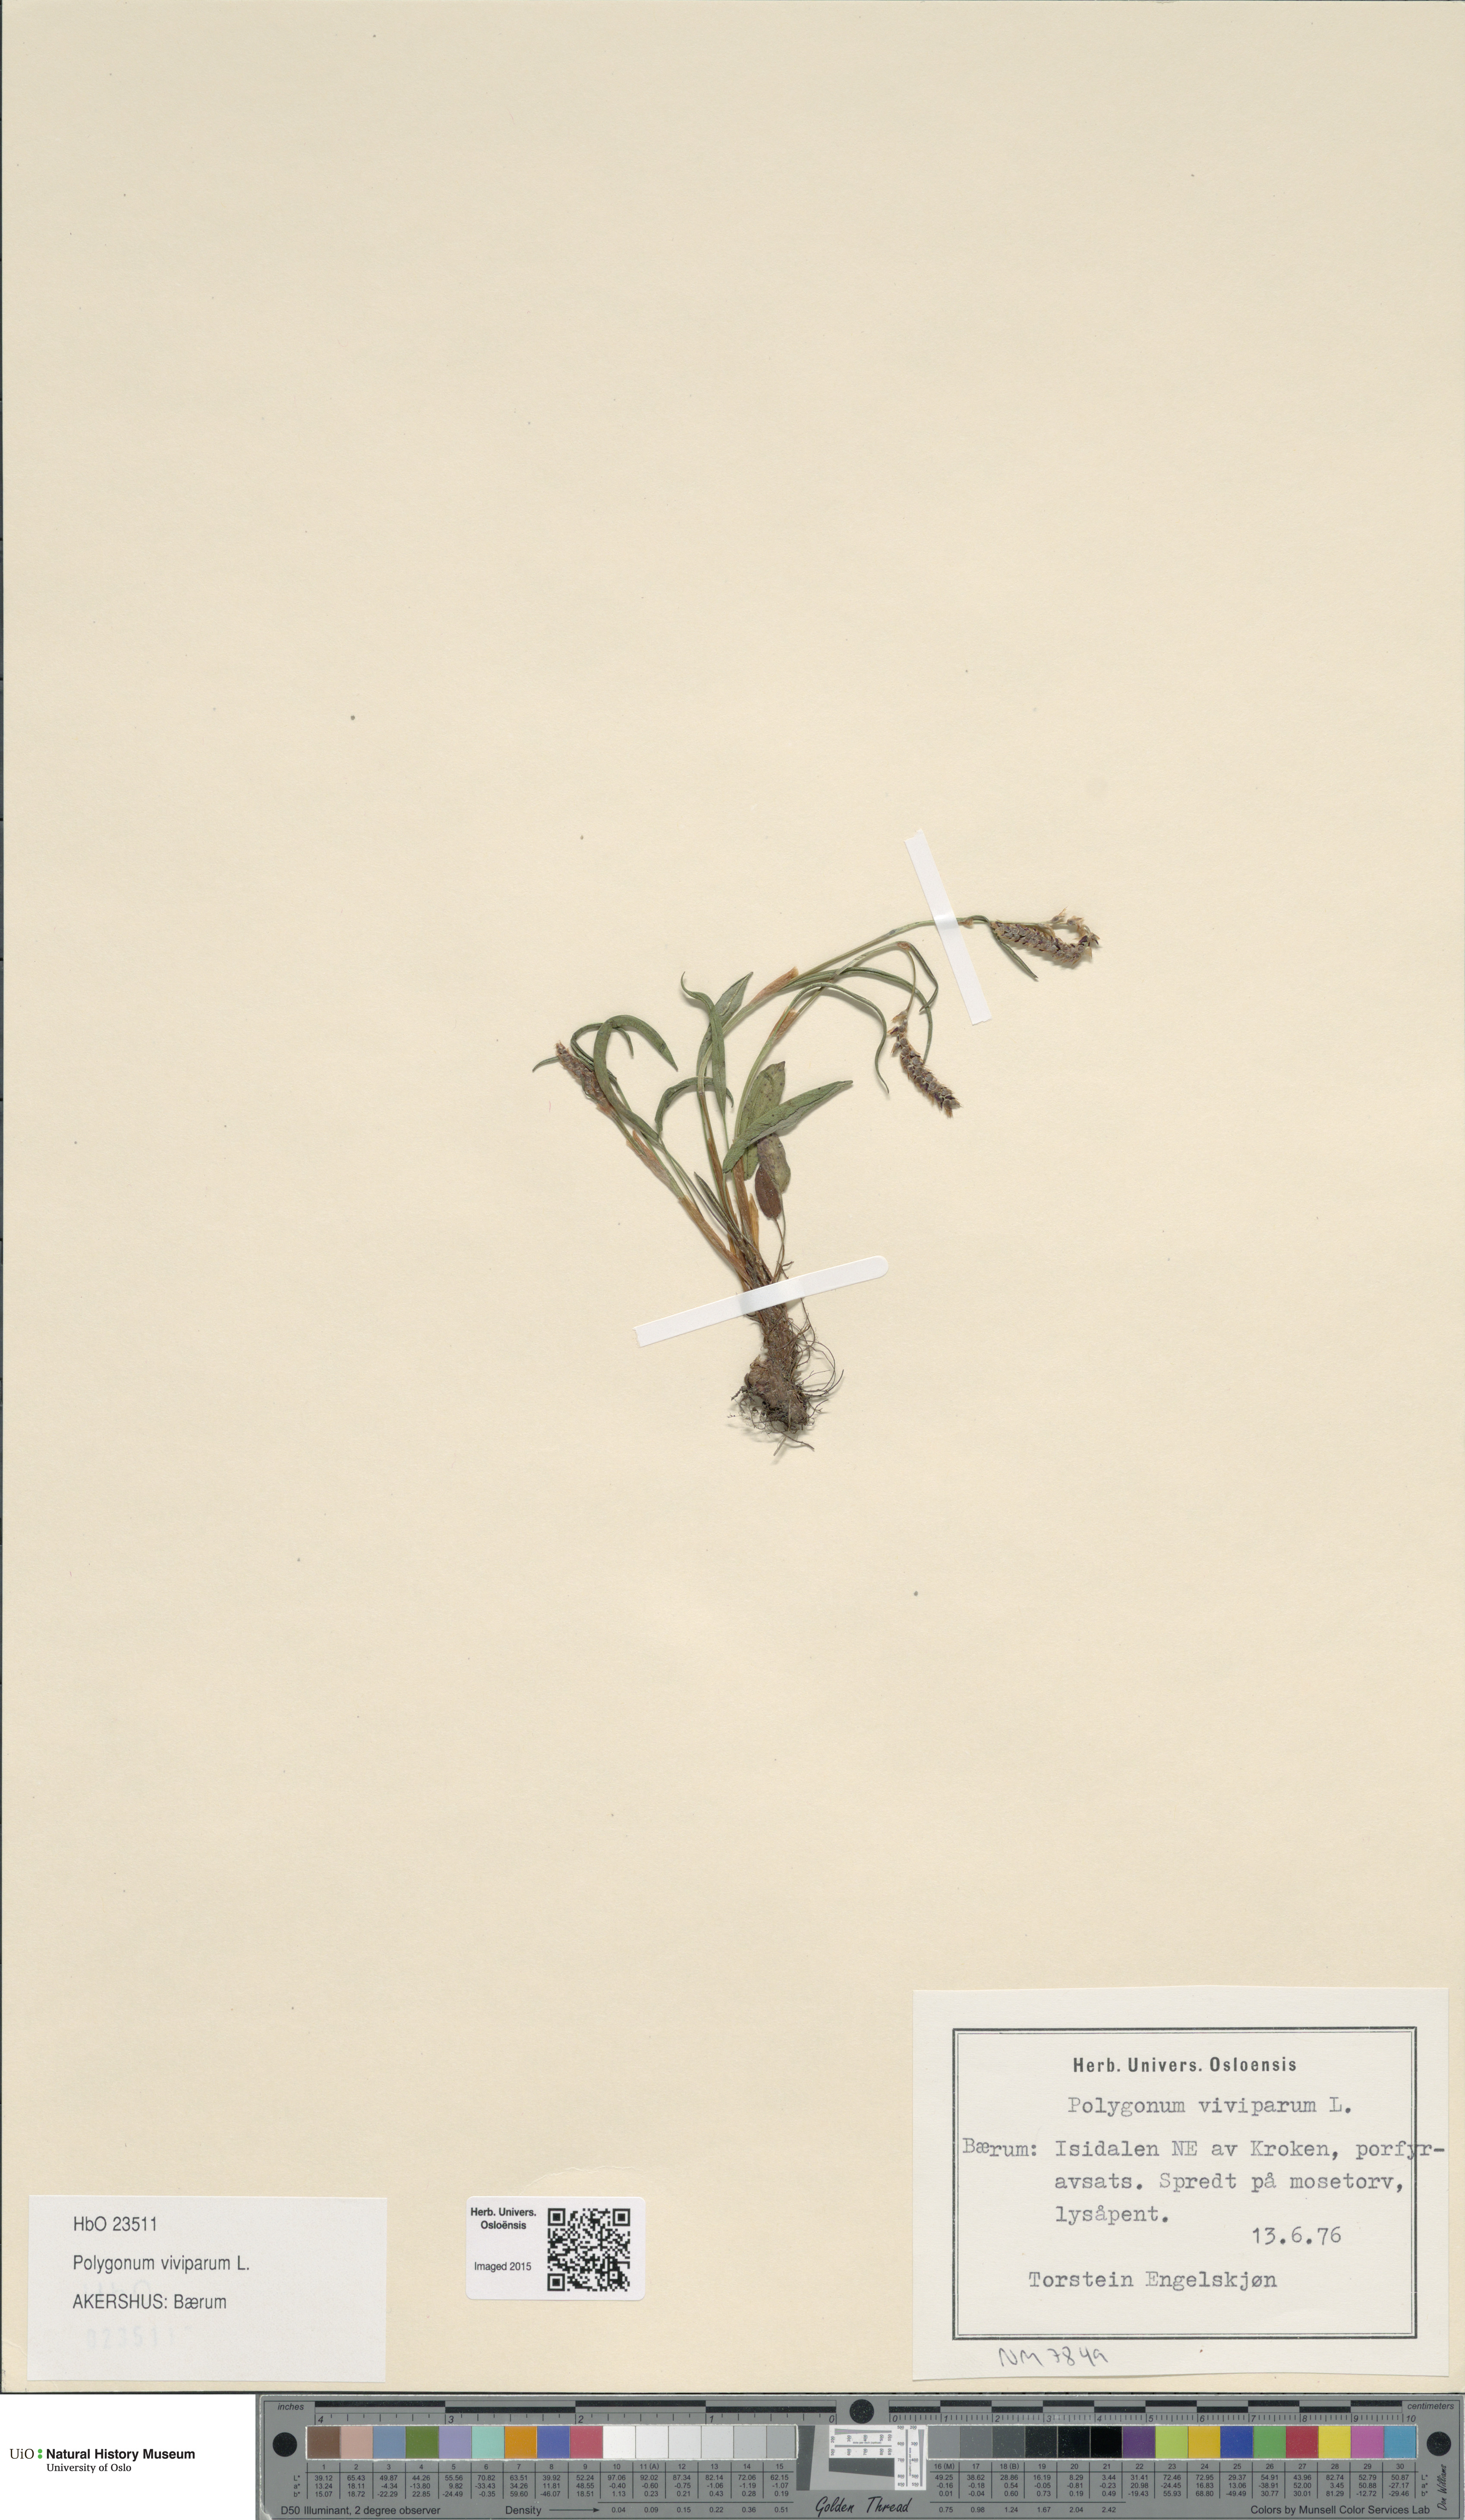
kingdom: Plantae
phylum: Tracheophyta
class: Magnoliopsida
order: Caryophyllales
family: Polygonaceae
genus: Bistorta
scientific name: Bistorta vivipara
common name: Alpine bistort
